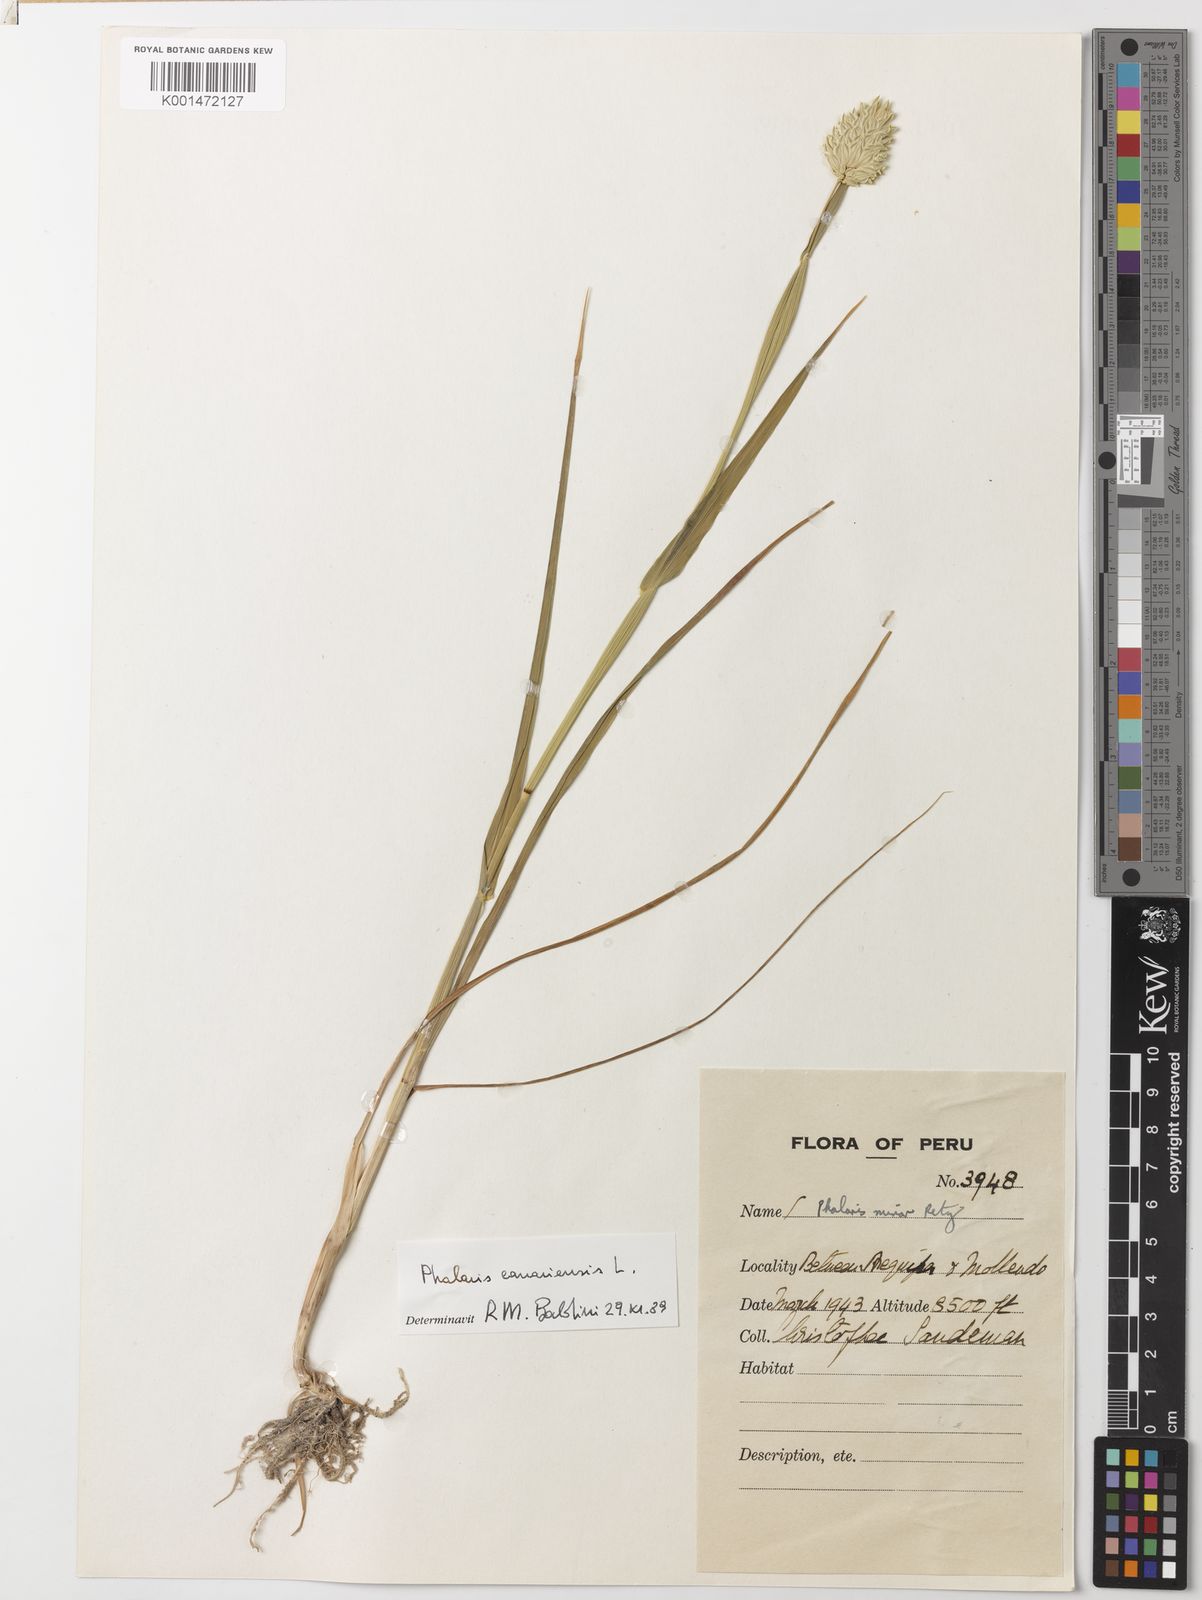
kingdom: Plantae
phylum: Tracheophyta
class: Liliopsida
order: Poales
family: Poaceae
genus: Phalaris
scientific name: Phalaris canariensis
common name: Annual canarygrass
